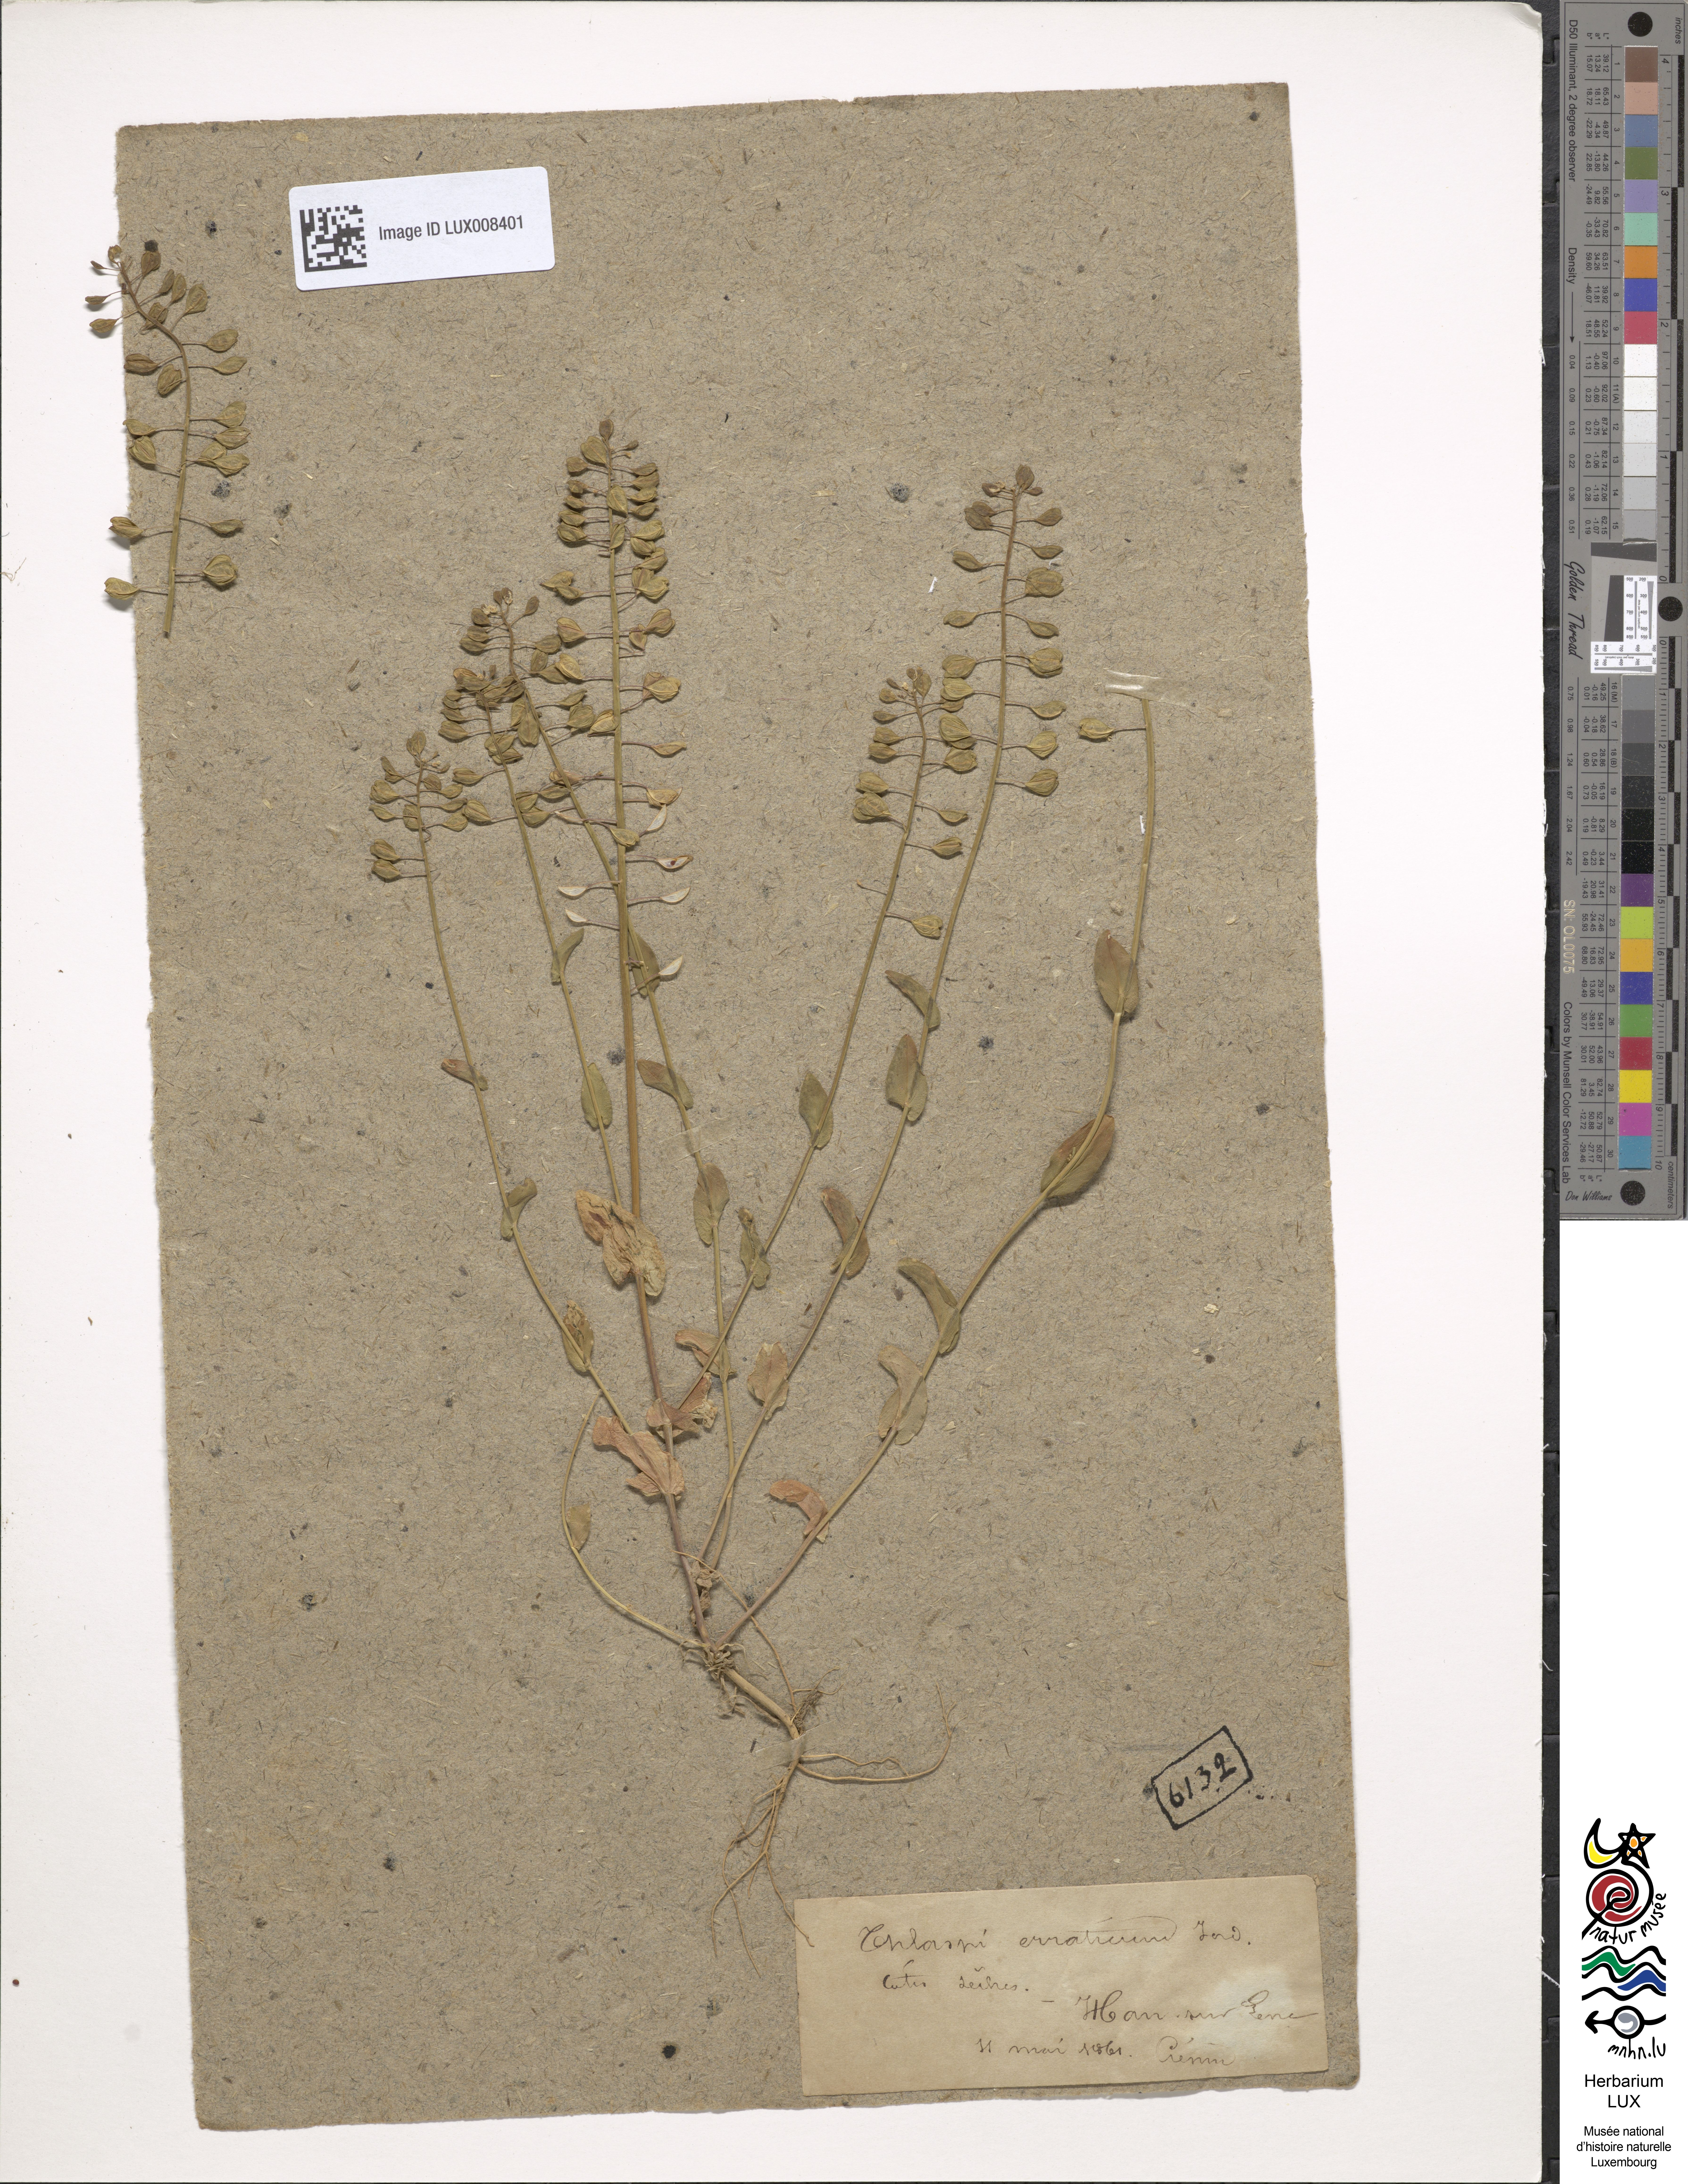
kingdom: Plantae
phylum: Tracheophyta
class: Magnoliopsida
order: Brassicales
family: Brassicaceae
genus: Noccaea
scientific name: Noccaea perfoliata
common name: Perfoliate pennycress
